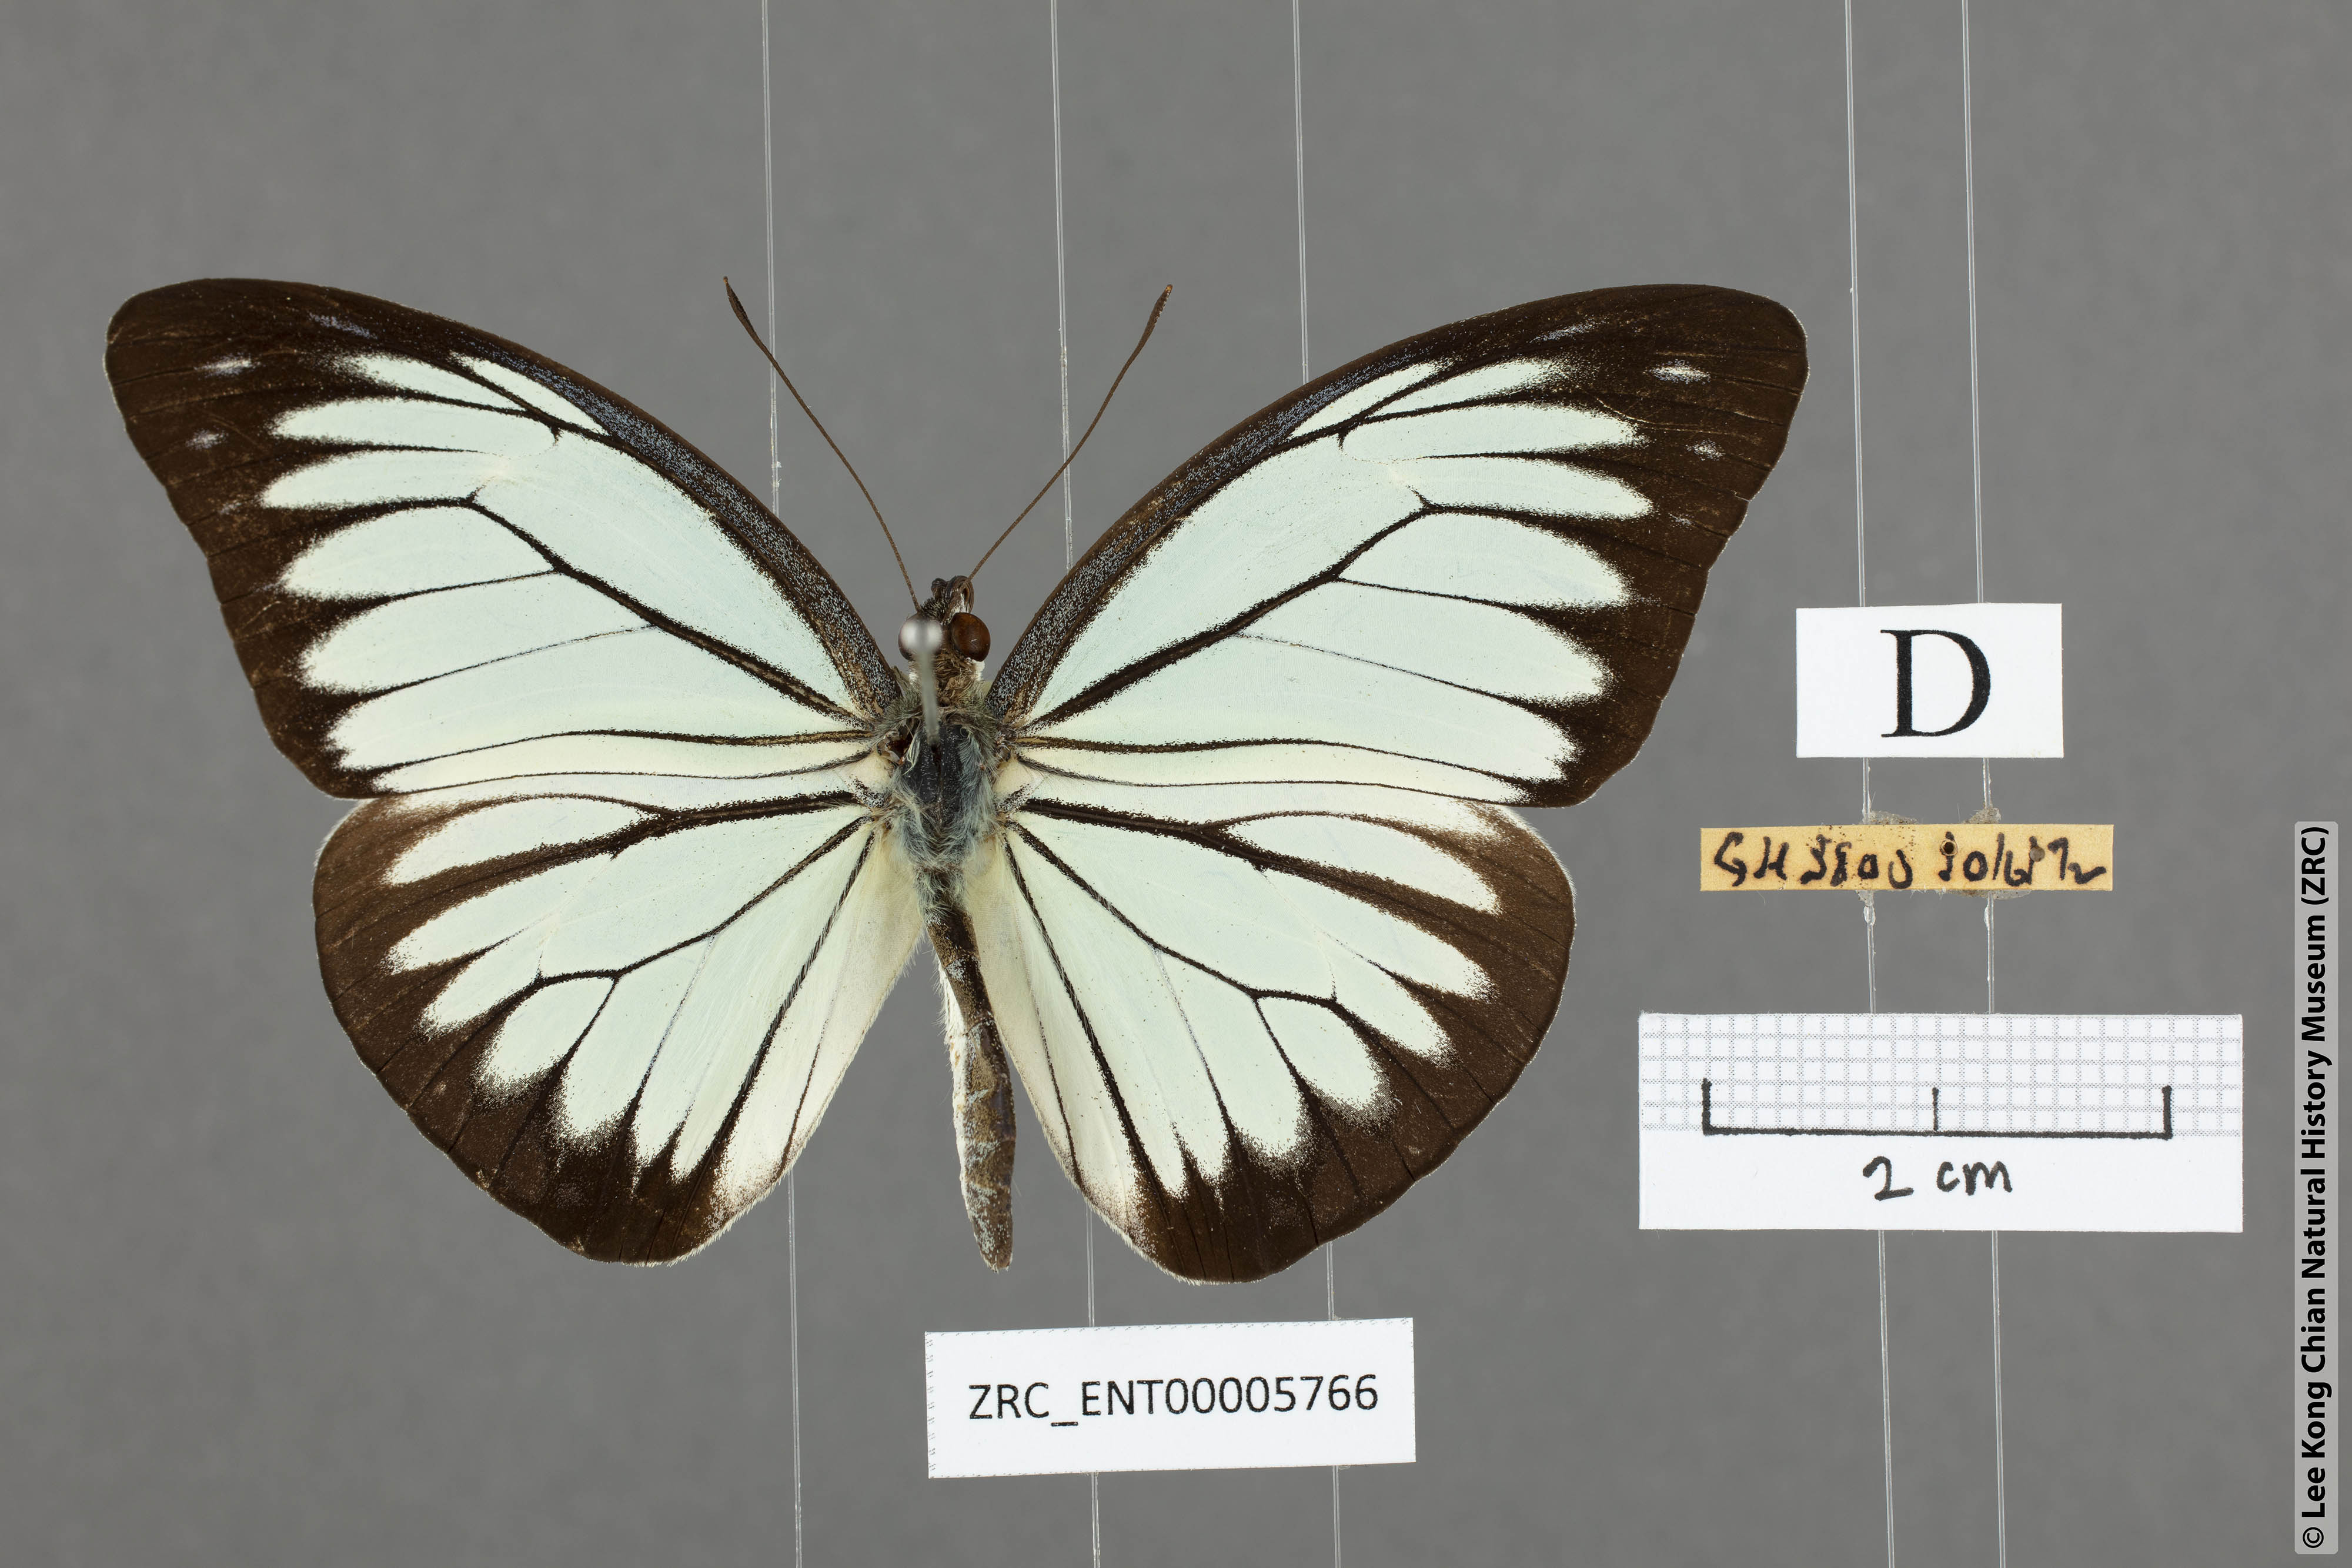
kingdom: Animalia
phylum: Arthropoda
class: Insecta
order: Lepidoptera
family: Pieridae
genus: Pareronia
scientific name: Pareronia valeria
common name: Common wanderer?
